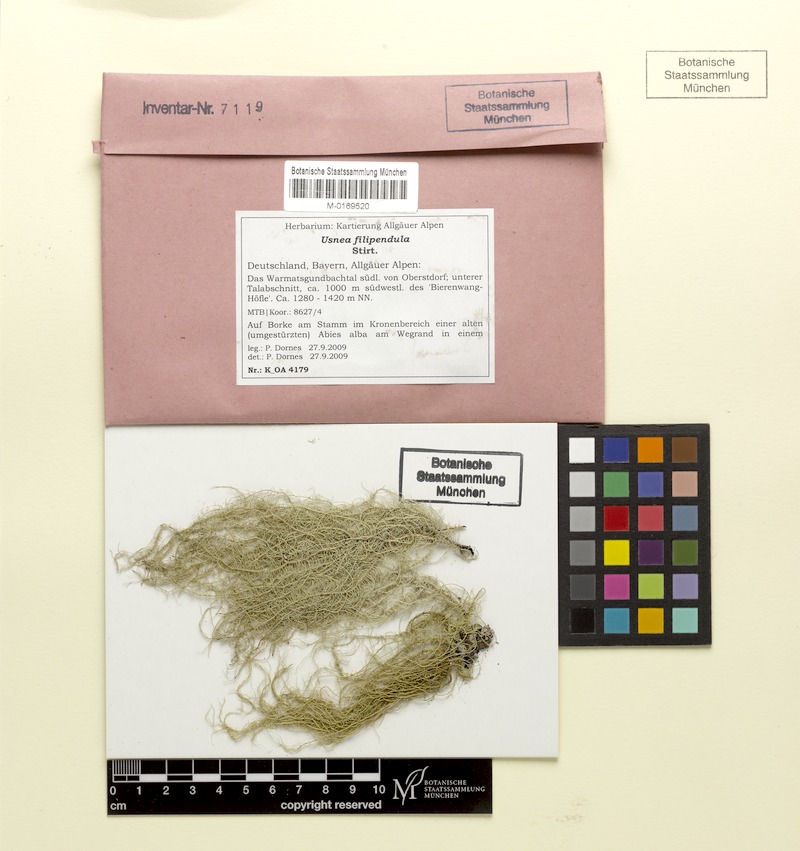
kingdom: Fungi
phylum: Ascomycota
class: Lecanoromycetes
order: Lecanorales
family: Parmeliaceae
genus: Usnea
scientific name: Usnea filipendula
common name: Fishbone beard lichen
